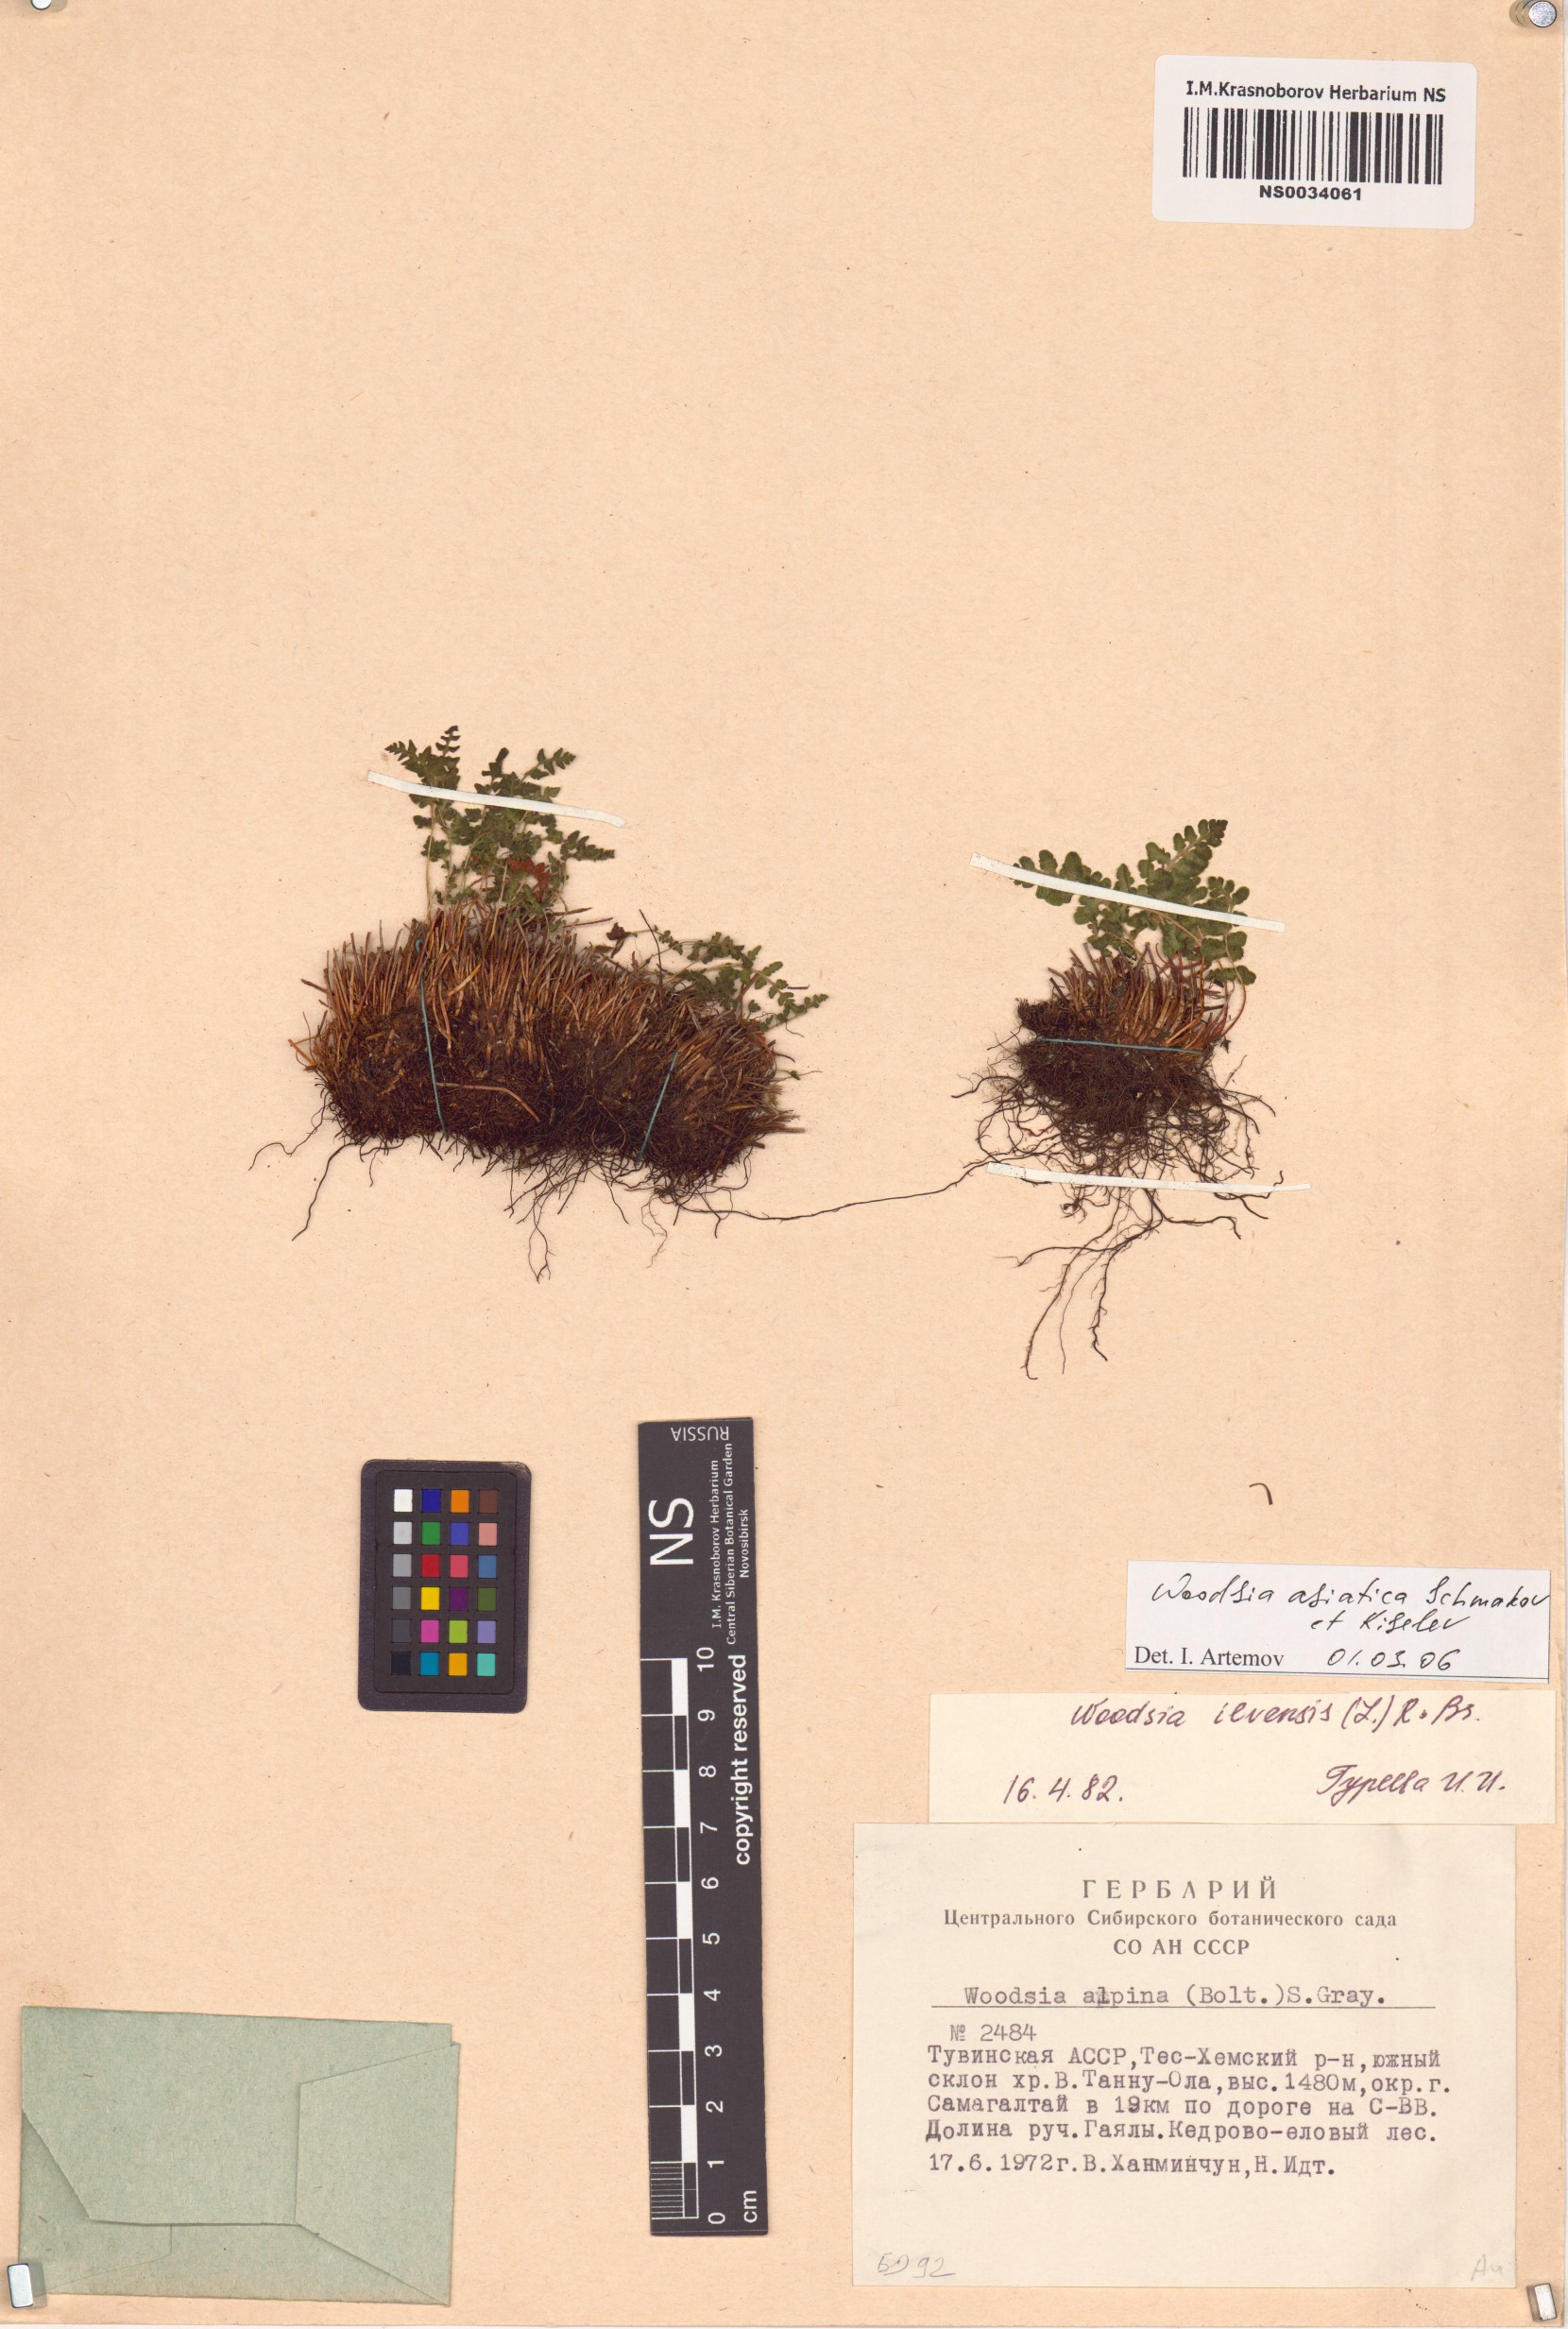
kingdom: Plantae
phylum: Tracheophyta
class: Polypodiopsida
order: Polypodiales
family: Woodsiaceae
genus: Woodsia
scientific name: Woodsia asiatica
